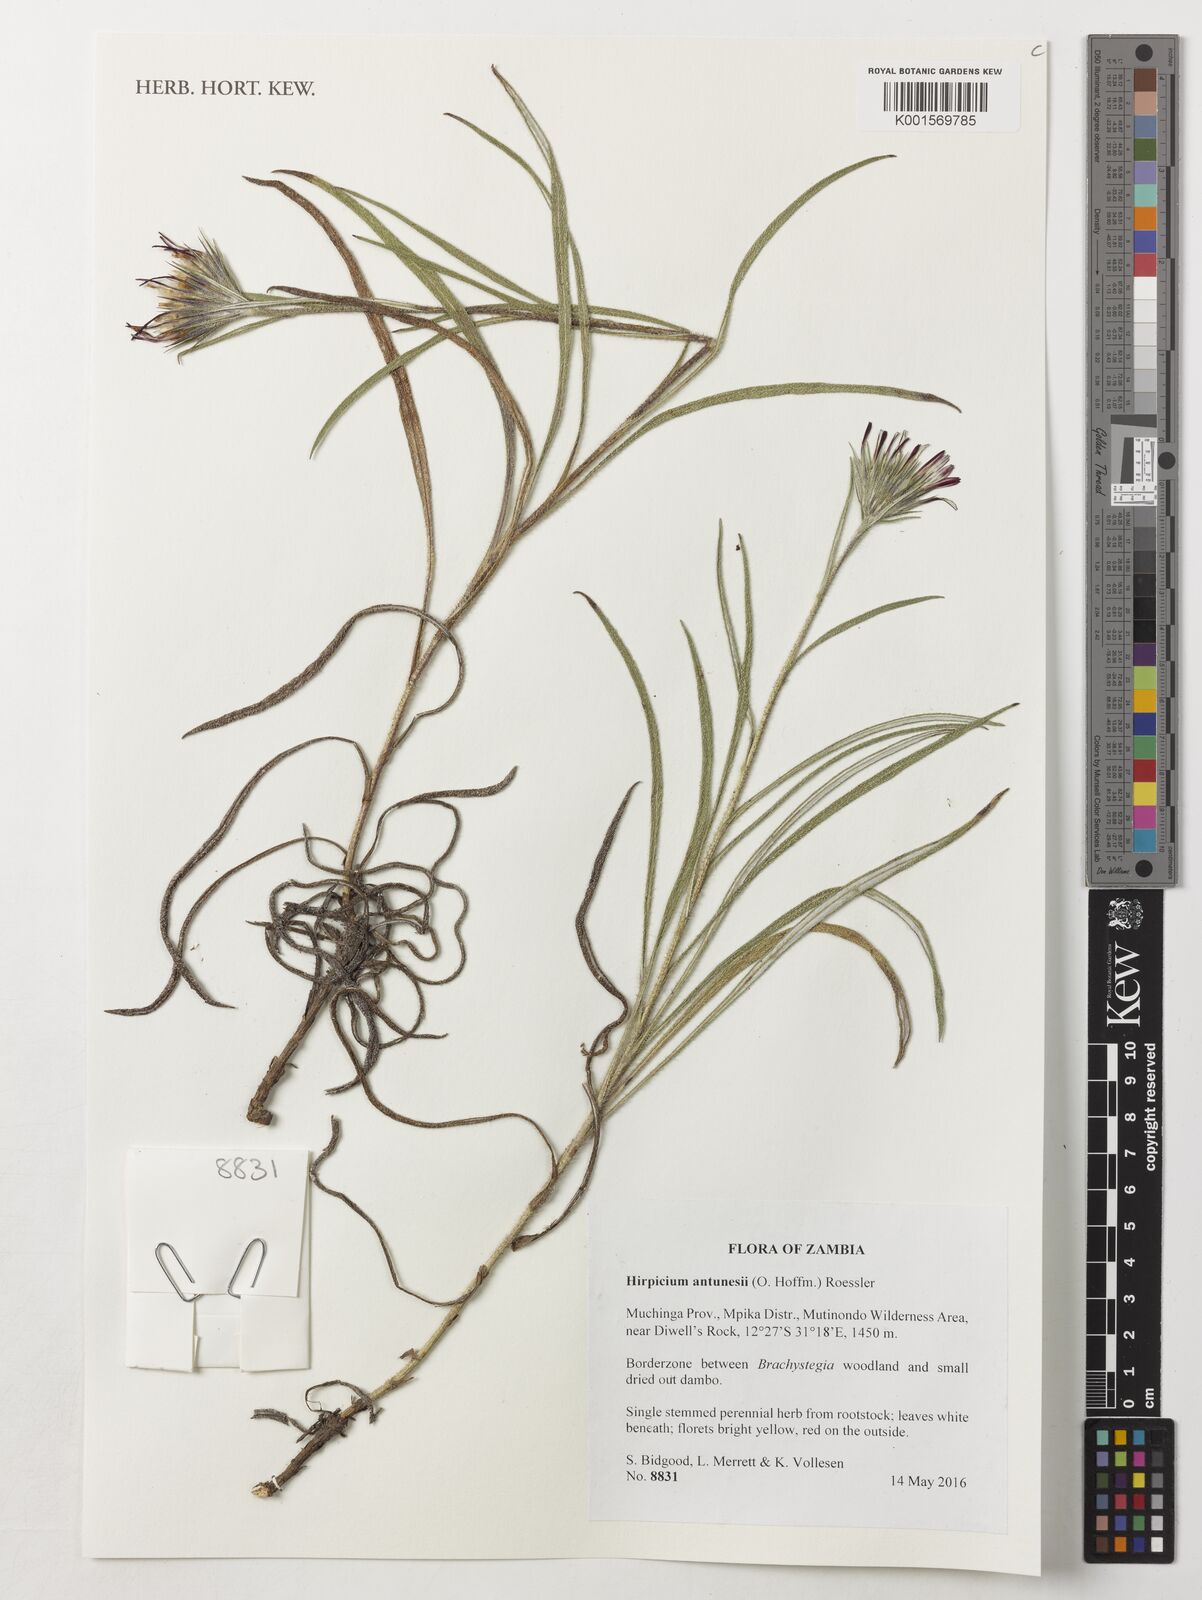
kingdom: Plantae
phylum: Tracheophyta
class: Magnoliopsida
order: Asterales
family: Asteraceae
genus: Gorteria
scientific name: Gorteria antunesii
